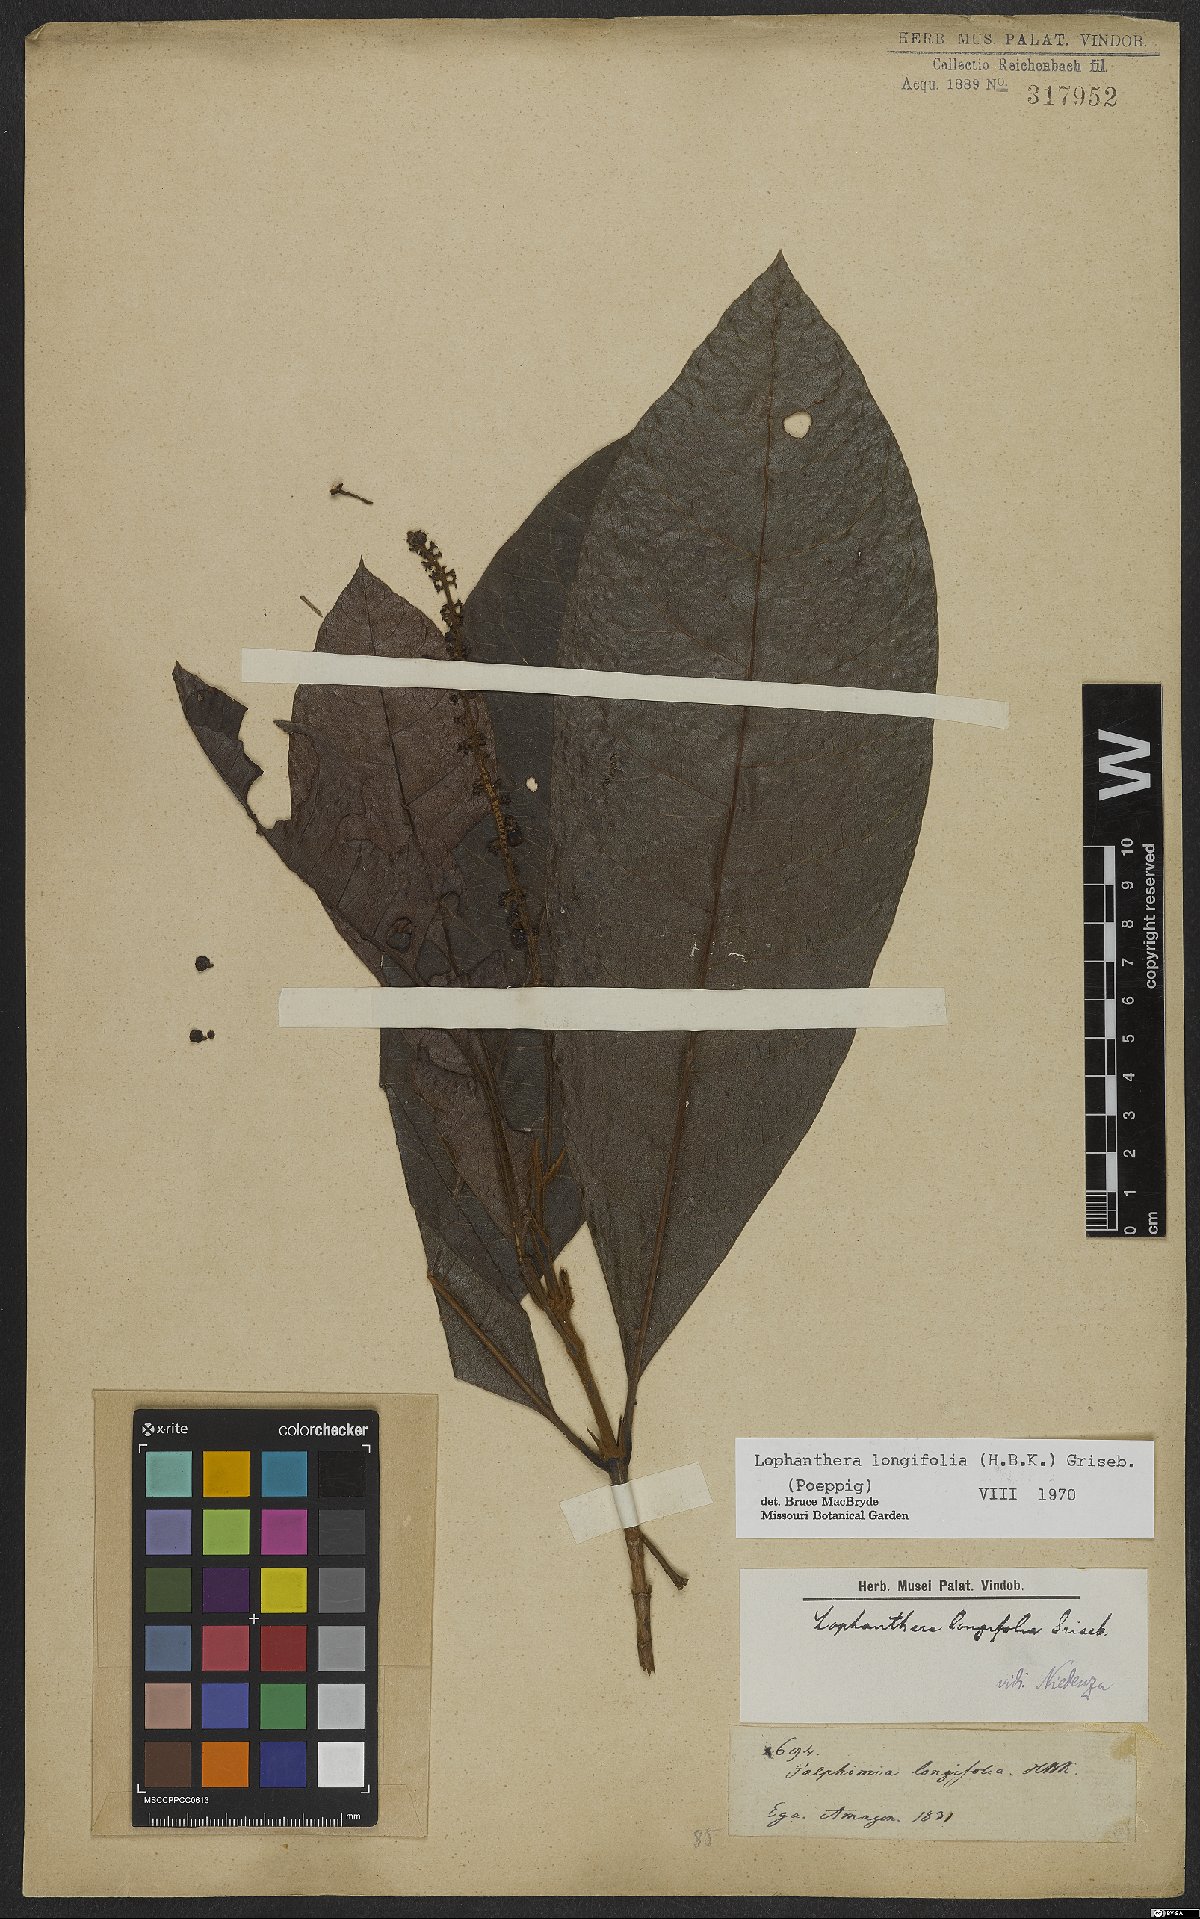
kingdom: Plantae
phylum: Tracheophyta
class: Magnoliopsida
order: Malpighiales
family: Malpighiaceae
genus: Lophanthera
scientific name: Lophanthera longifolia
